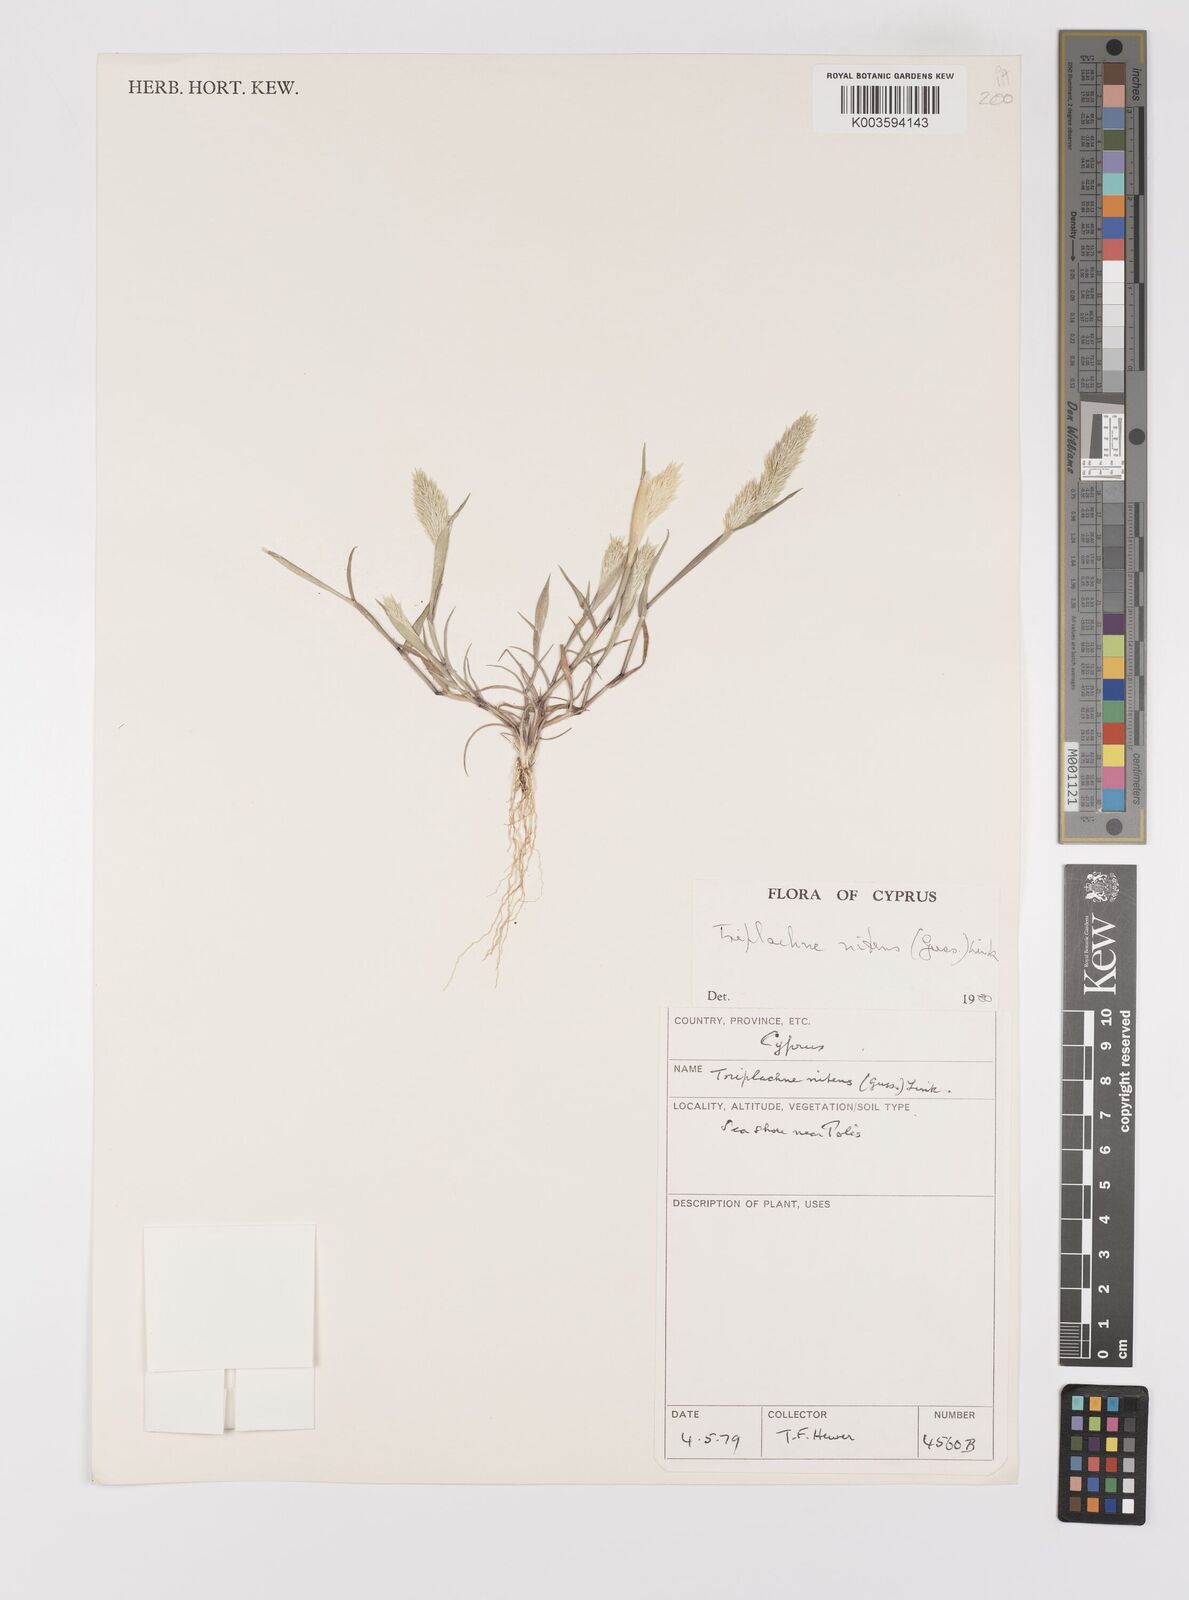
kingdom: Plantae
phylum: Tracheophyta
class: Liliopsida
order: Poales
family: Poaceae
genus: Triplachne
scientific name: Triplachne nitens
